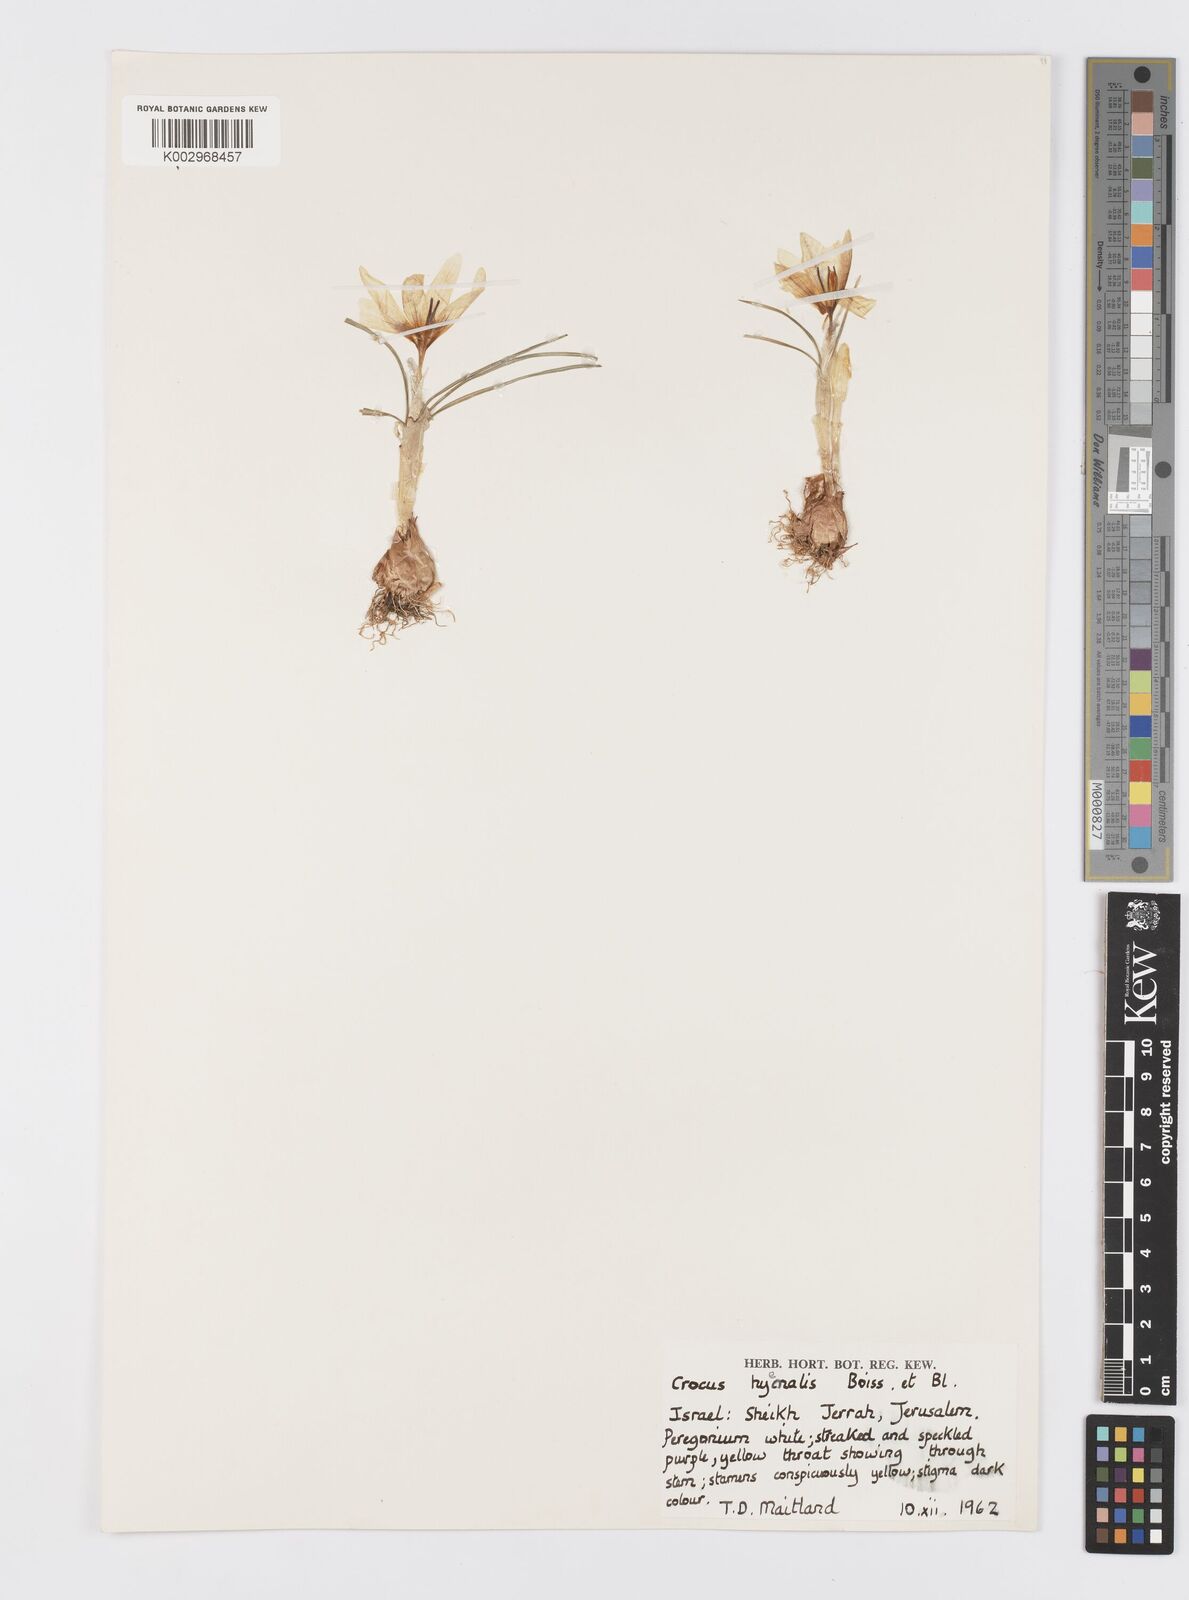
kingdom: Plantae
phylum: Tracheophyta
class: Liliopsida
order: Asparagales
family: Iridaceae
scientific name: Iridaceae
